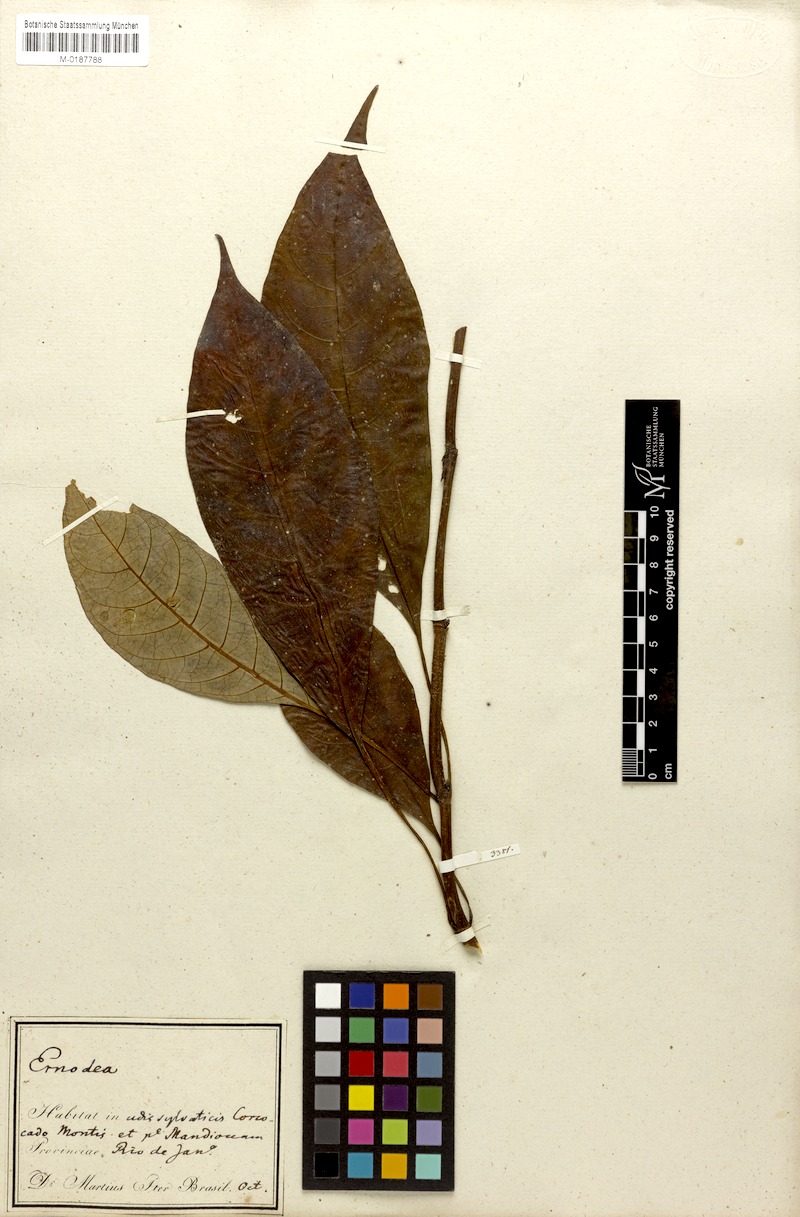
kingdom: Plantae
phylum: Tracheophyta
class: Magnoliopsida
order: Gentianales
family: Rubiaceae
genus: Hoffmannia
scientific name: Hoffmannia peckii
